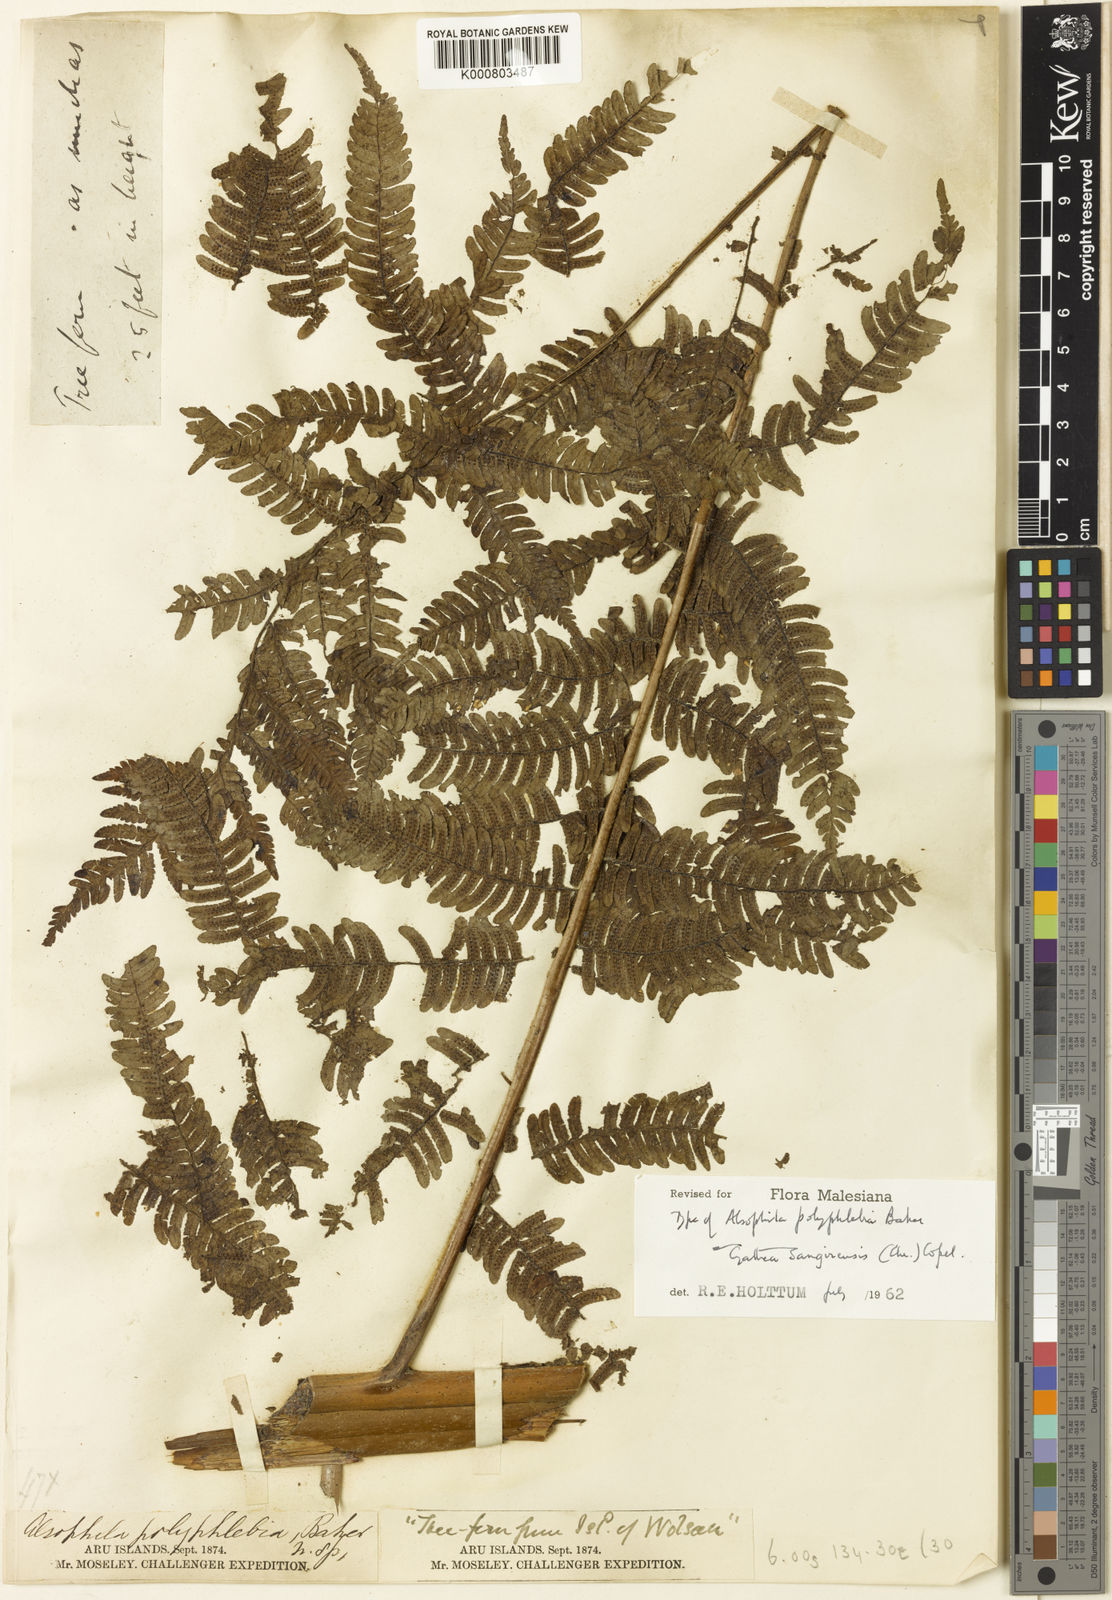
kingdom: Plantae
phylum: Tracheophyta
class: Polypodiopsida
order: Cyatheales
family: Cyatheaceae
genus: Sphaeropteris
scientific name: Sphaeropteris felina
